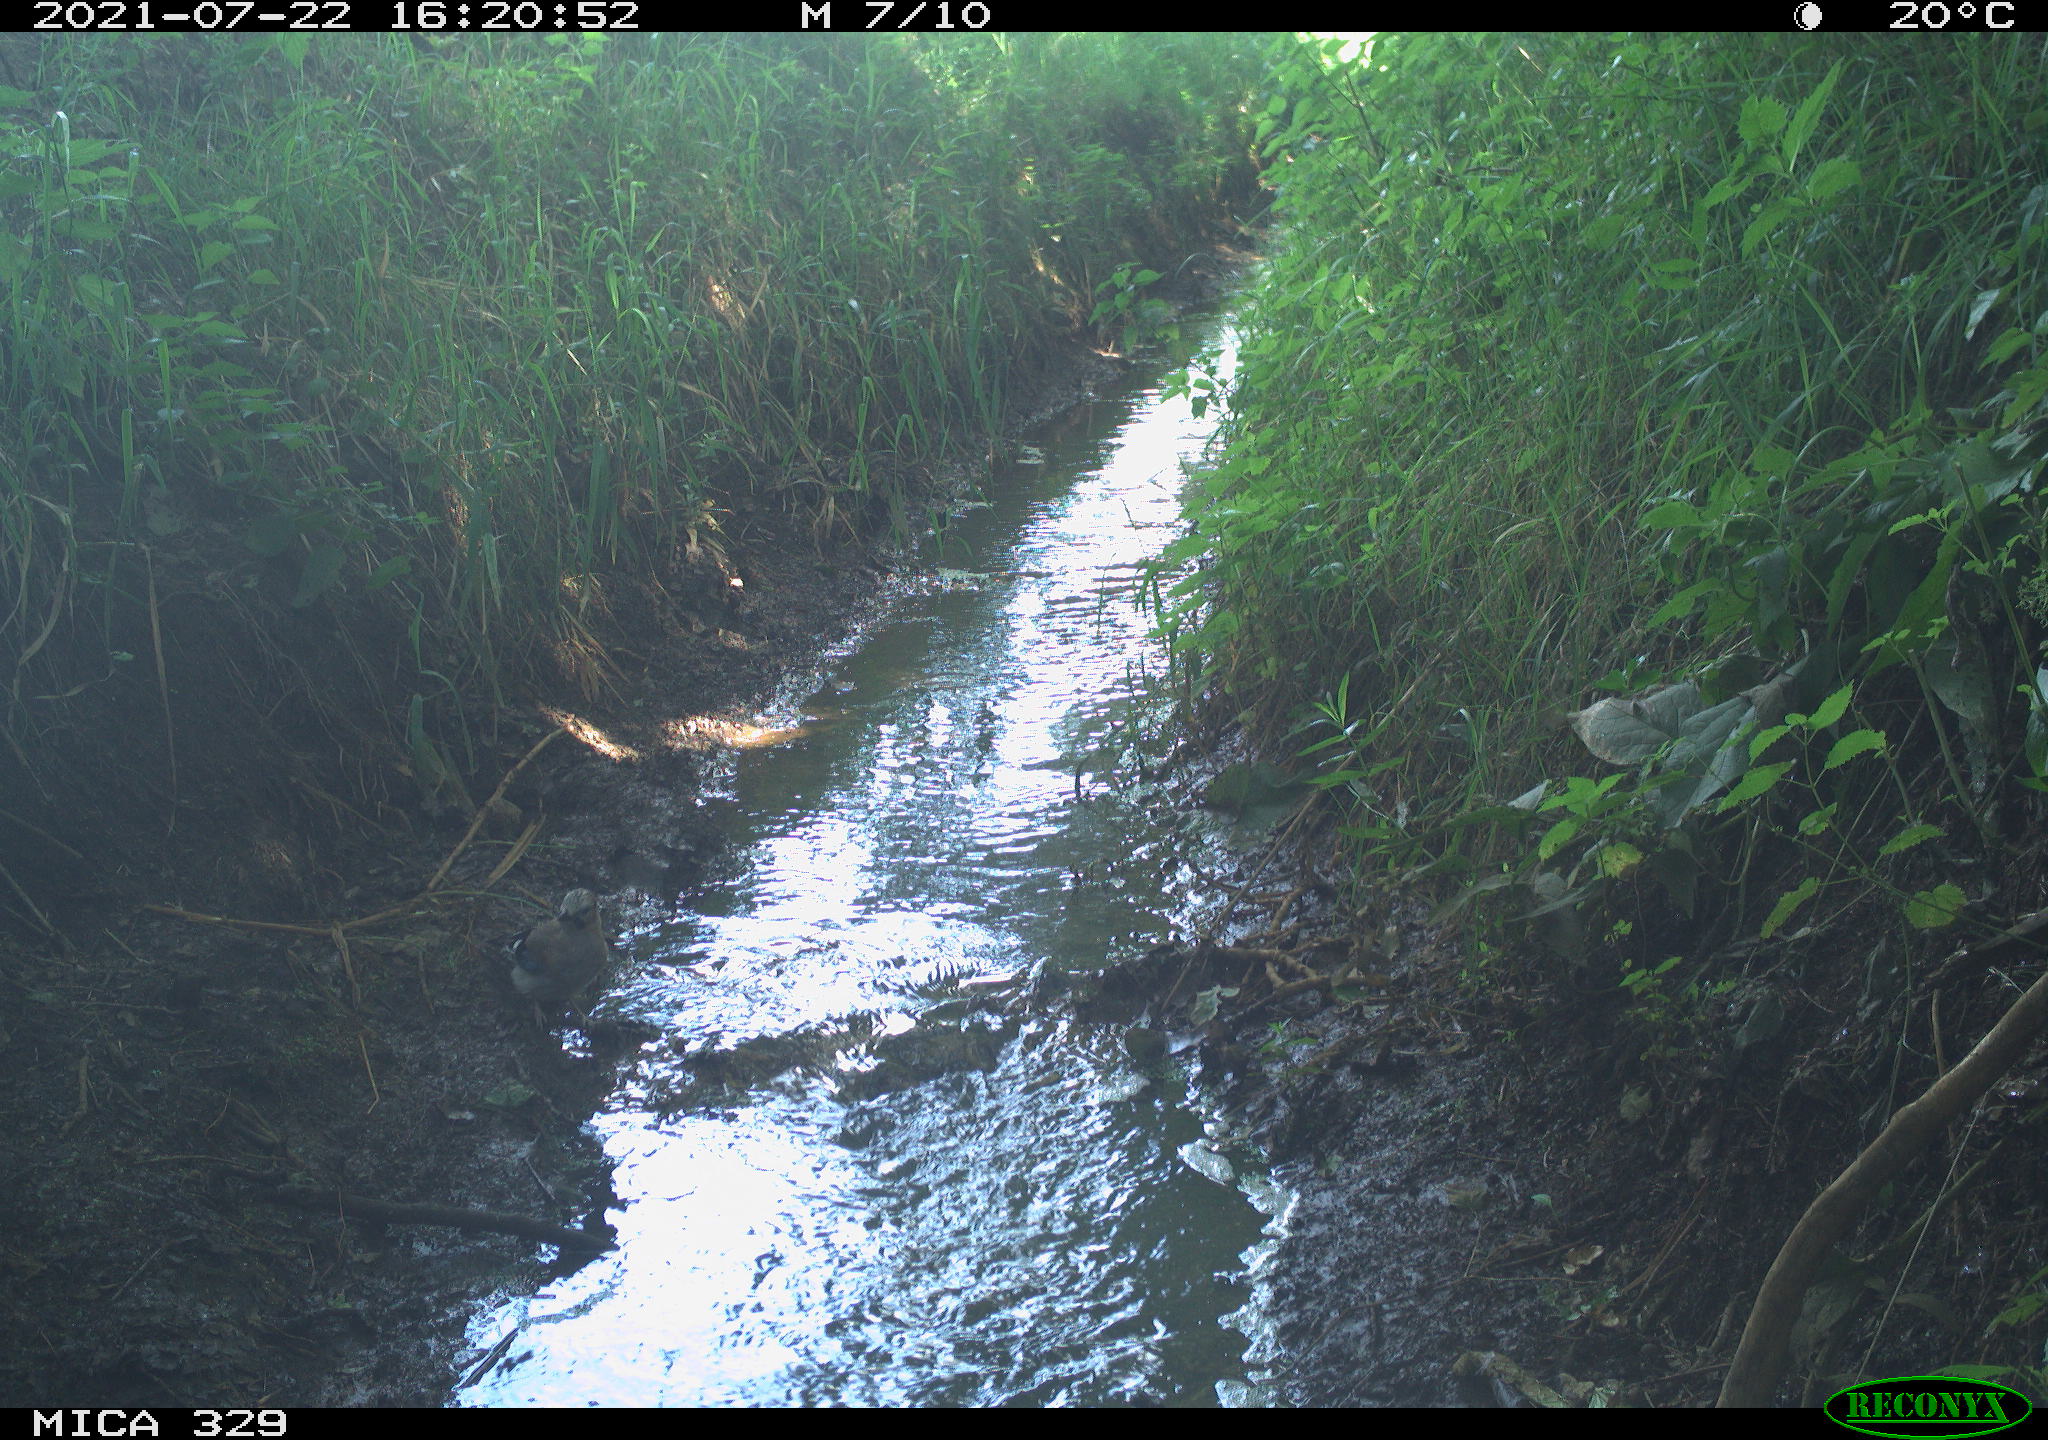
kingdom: Animalia
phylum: Chordata
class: Aves
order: Passeriformes
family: Corvidae
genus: Garrulus
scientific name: Garrulus glandarius
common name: Eurasian jay
